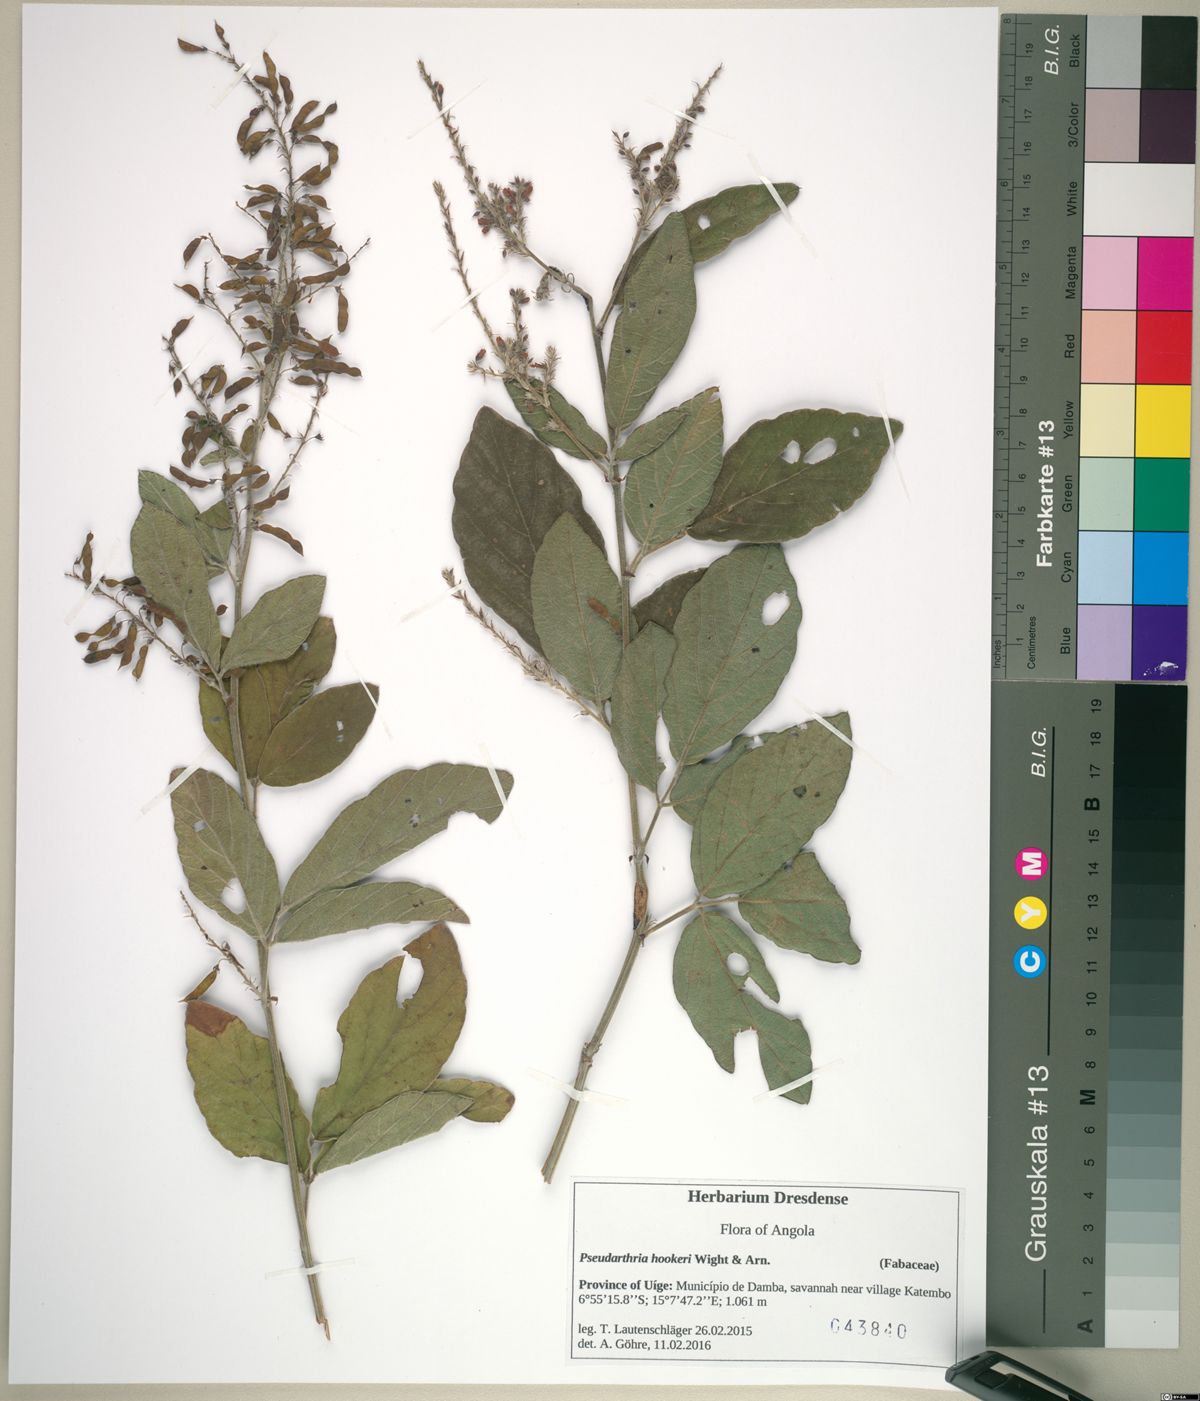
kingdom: Plantae
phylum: Tracheophyta
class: Magnoliopsida
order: Fabales
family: Fabaceae
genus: Pseudarthria
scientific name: Pseudarthria hookeri
